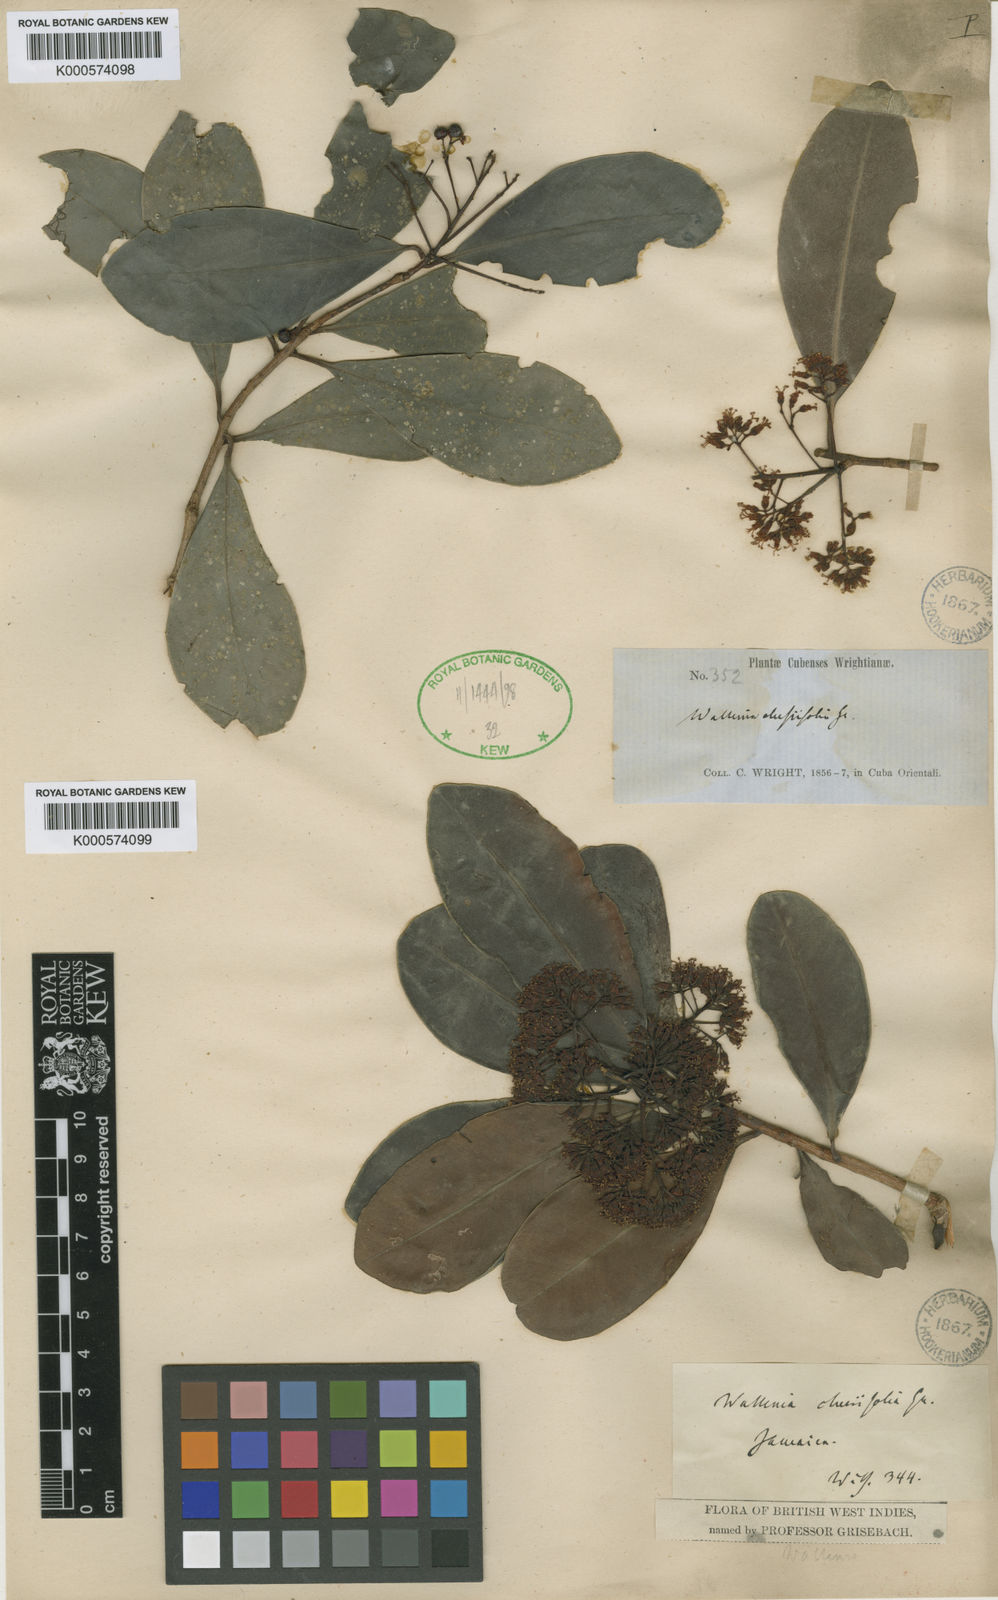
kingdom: Plantae
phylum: Tracheophyta
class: Magnoliopsida
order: Ericales
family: Primulaceae
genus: Wallenia
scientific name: Wallenia laurifolia
